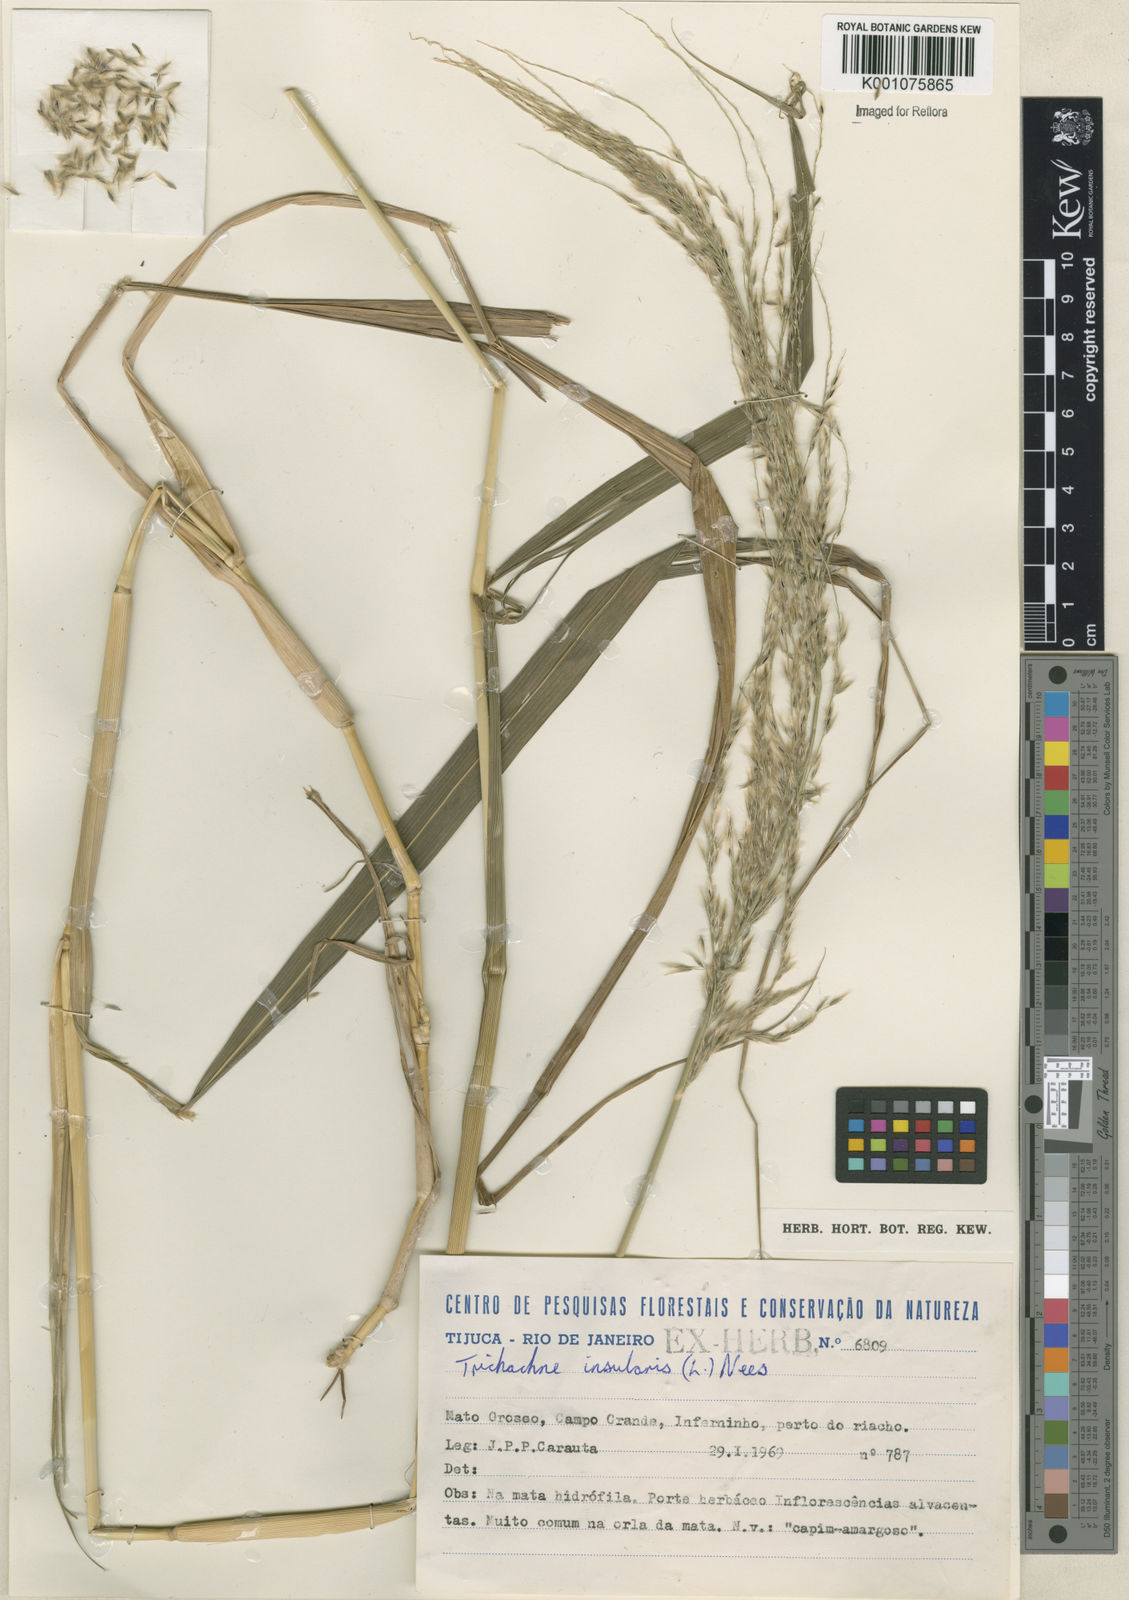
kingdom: Plantae
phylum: Tracheophyta
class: Liliopsida
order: Poales
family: Poaceae
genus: Digitaria
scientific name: Digitaria
